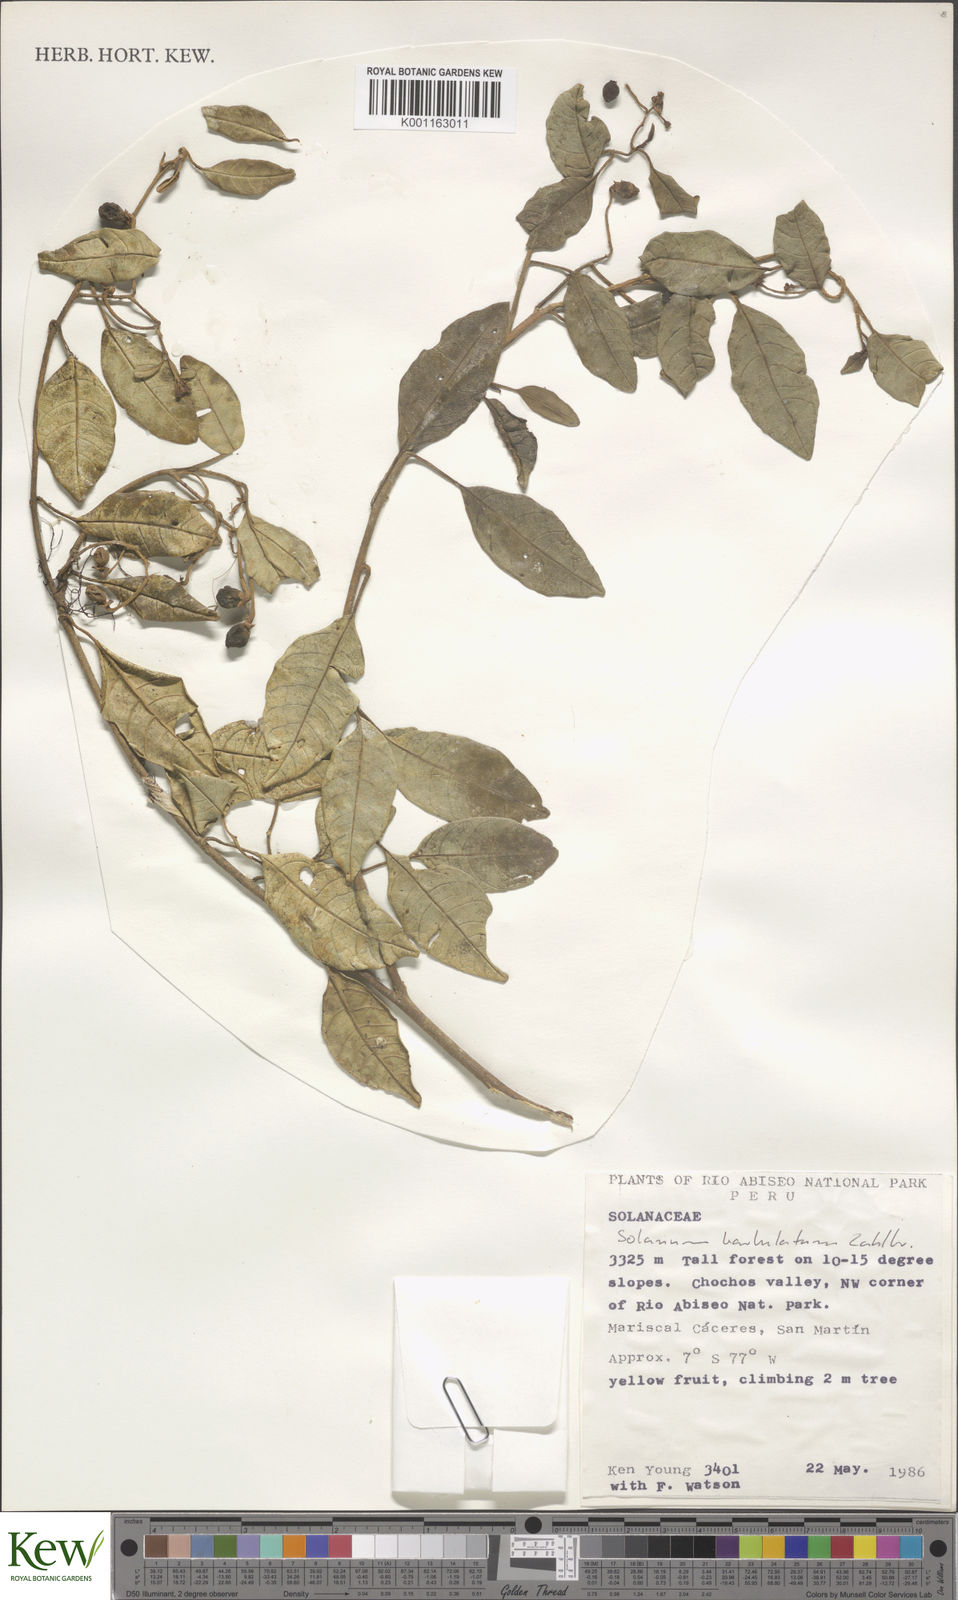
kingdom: Plantae
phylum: Tracheophyta
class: Magnoliopsida
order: Solanales
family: Solanaceae
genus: Solanum
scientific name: Solanum barbulatum
